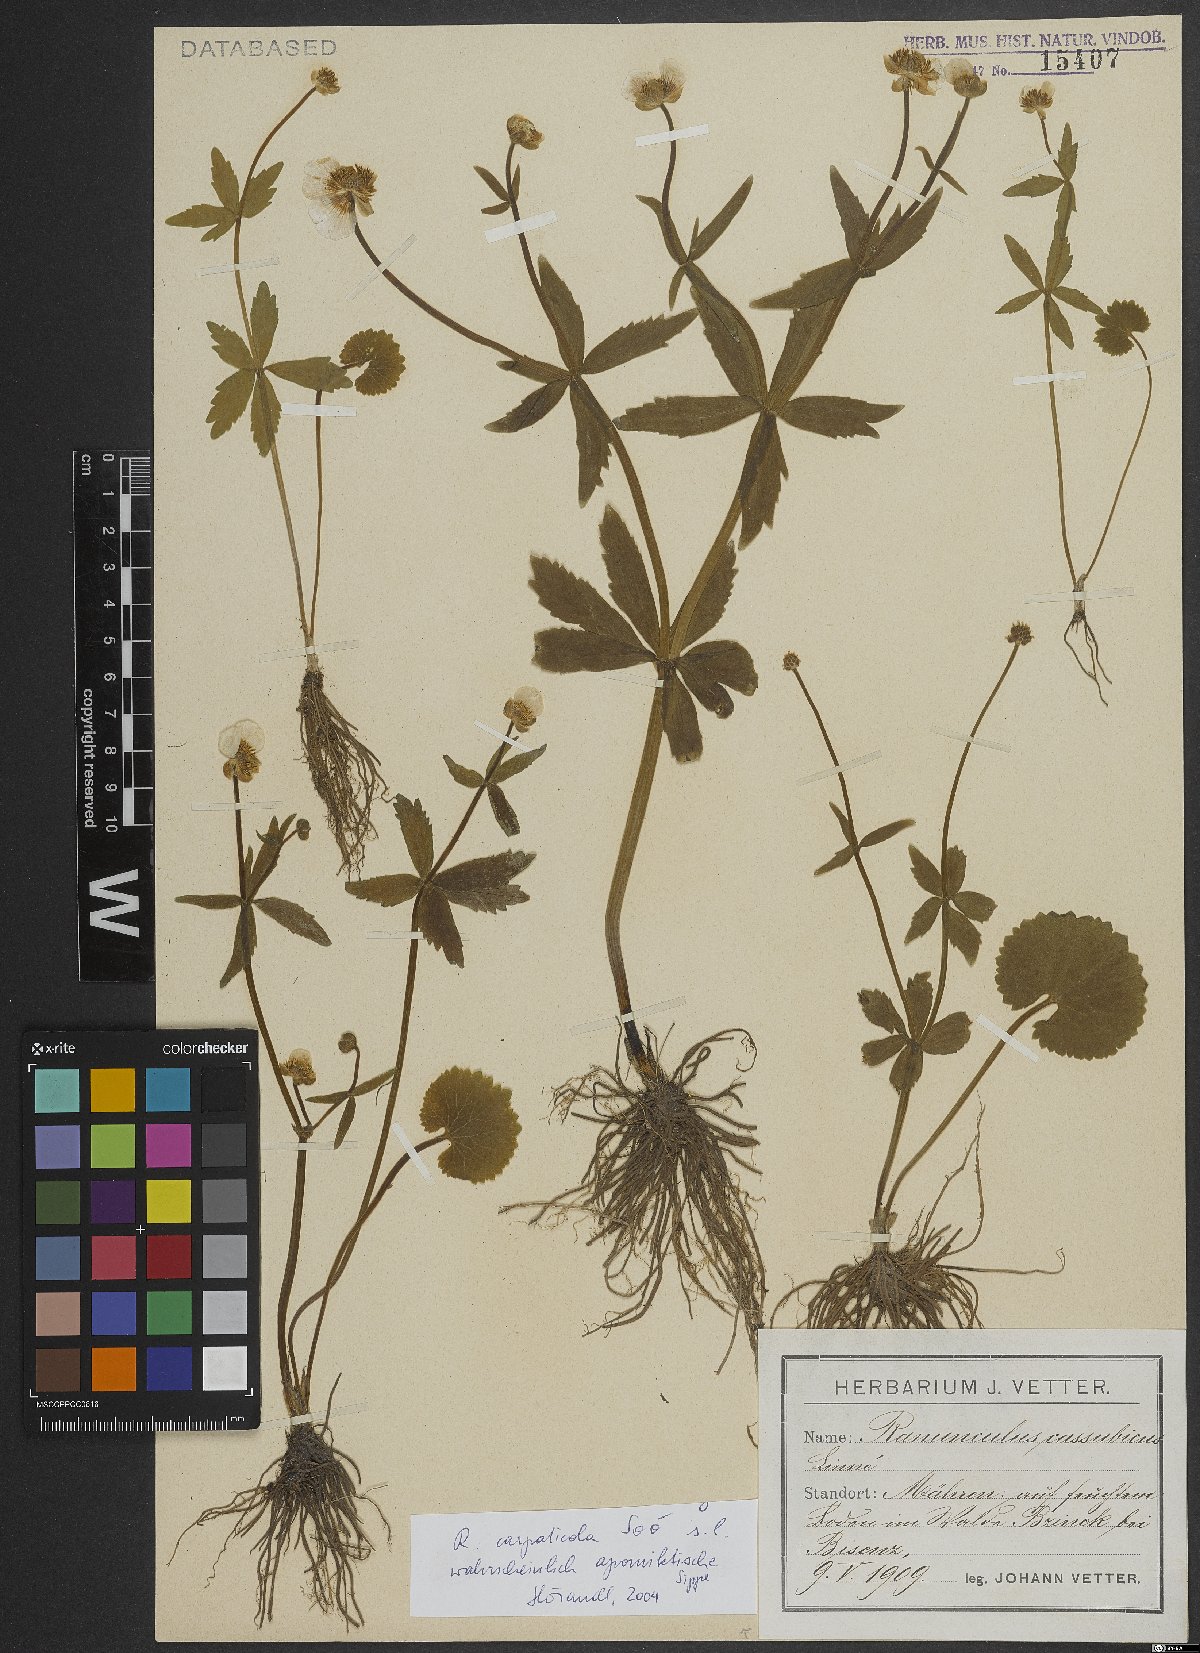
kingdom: Plantae
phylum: Tracheophyta
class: Magnoliopsida
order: Ranunculales
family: Ranunculaceae
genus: Ranunculus
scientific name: Ranunculus cassubicifolius
